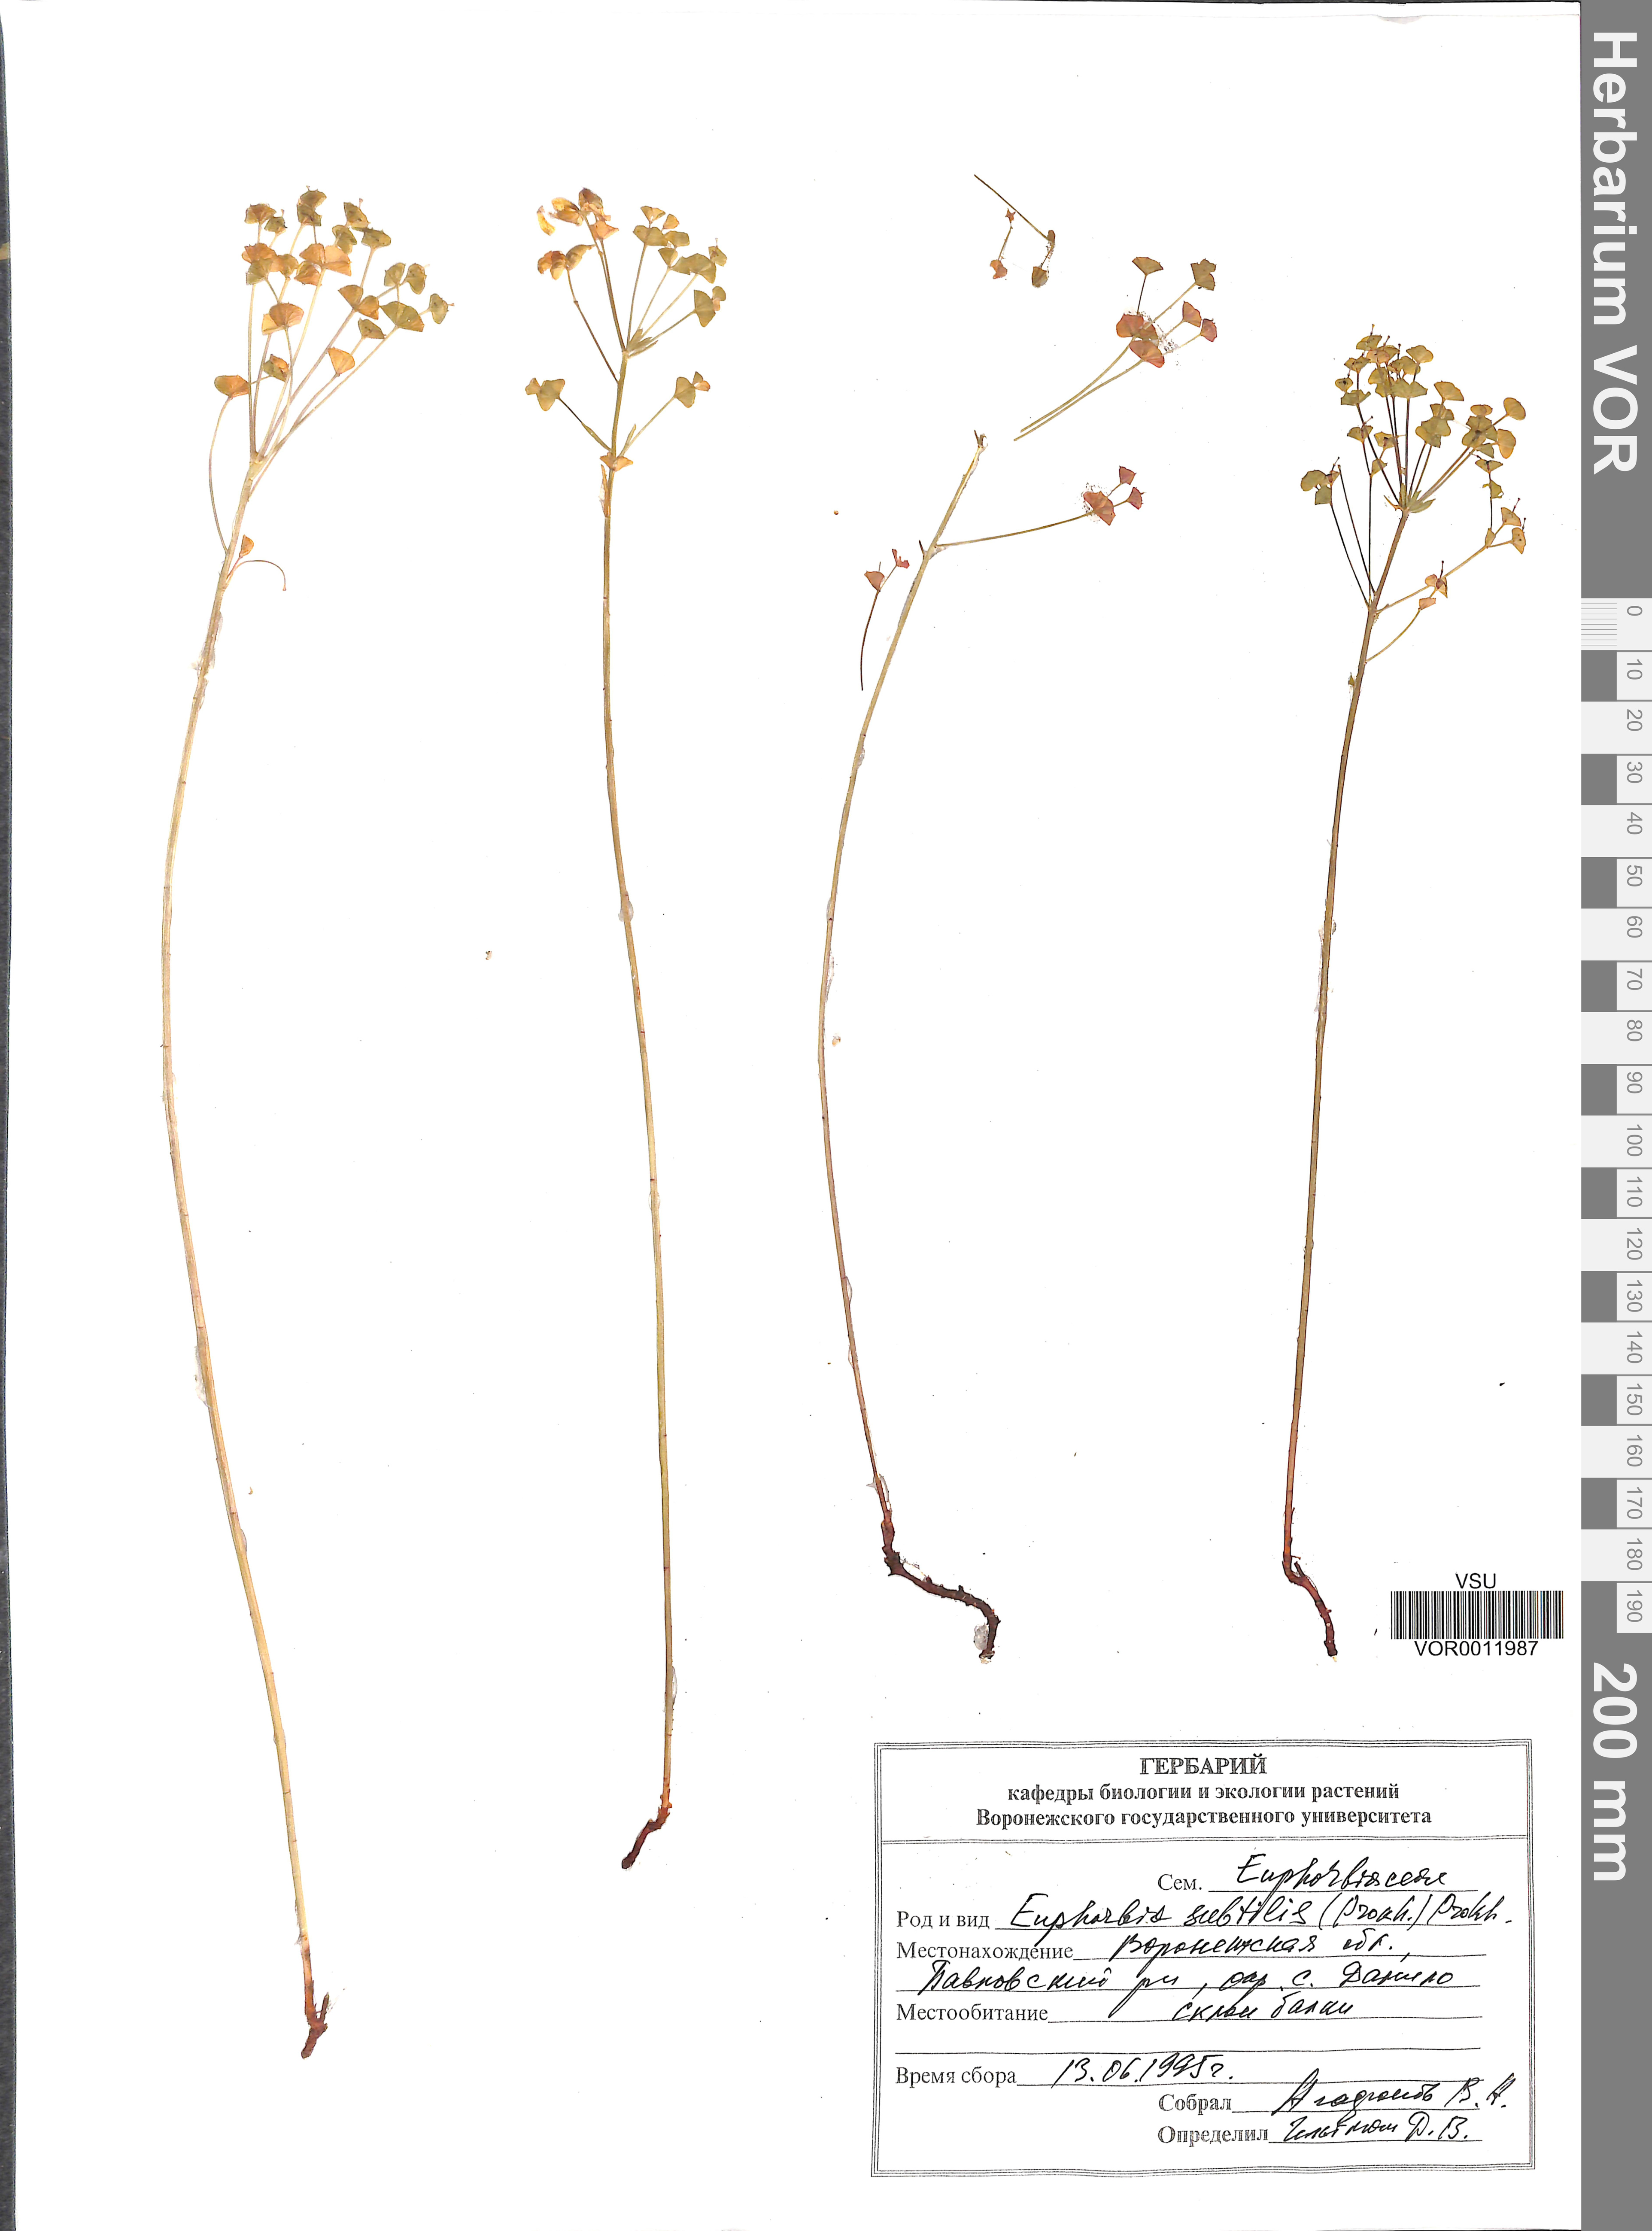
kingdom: Plantae
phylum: Tracheophyta
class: Magnoliopsida
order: Malpighiales
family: Euphorbiaceae
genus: Euphorbia
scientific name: Euphorbia microcarpa
